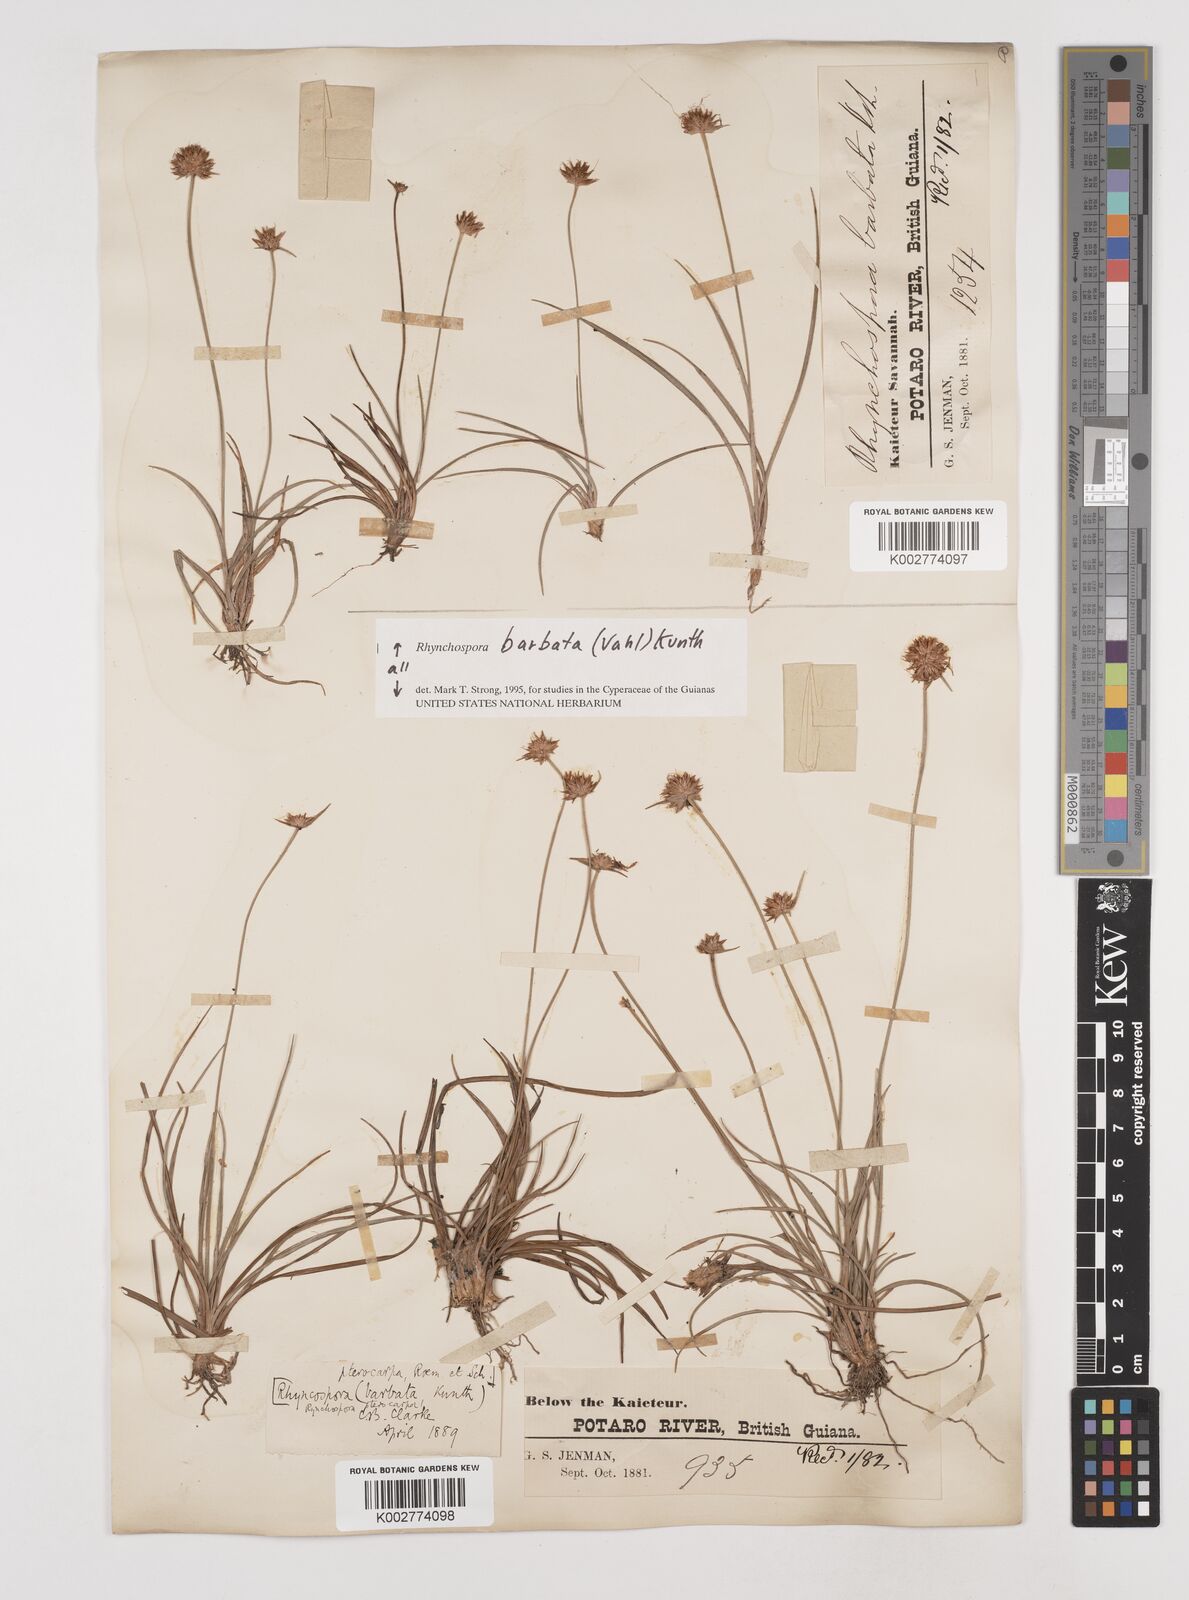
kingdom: Plantae
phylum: Tracheophyta
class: Liliopsida
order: Poales
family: Cyperaceae
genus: Rhynchospora
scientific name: Rhynchospora barbata
